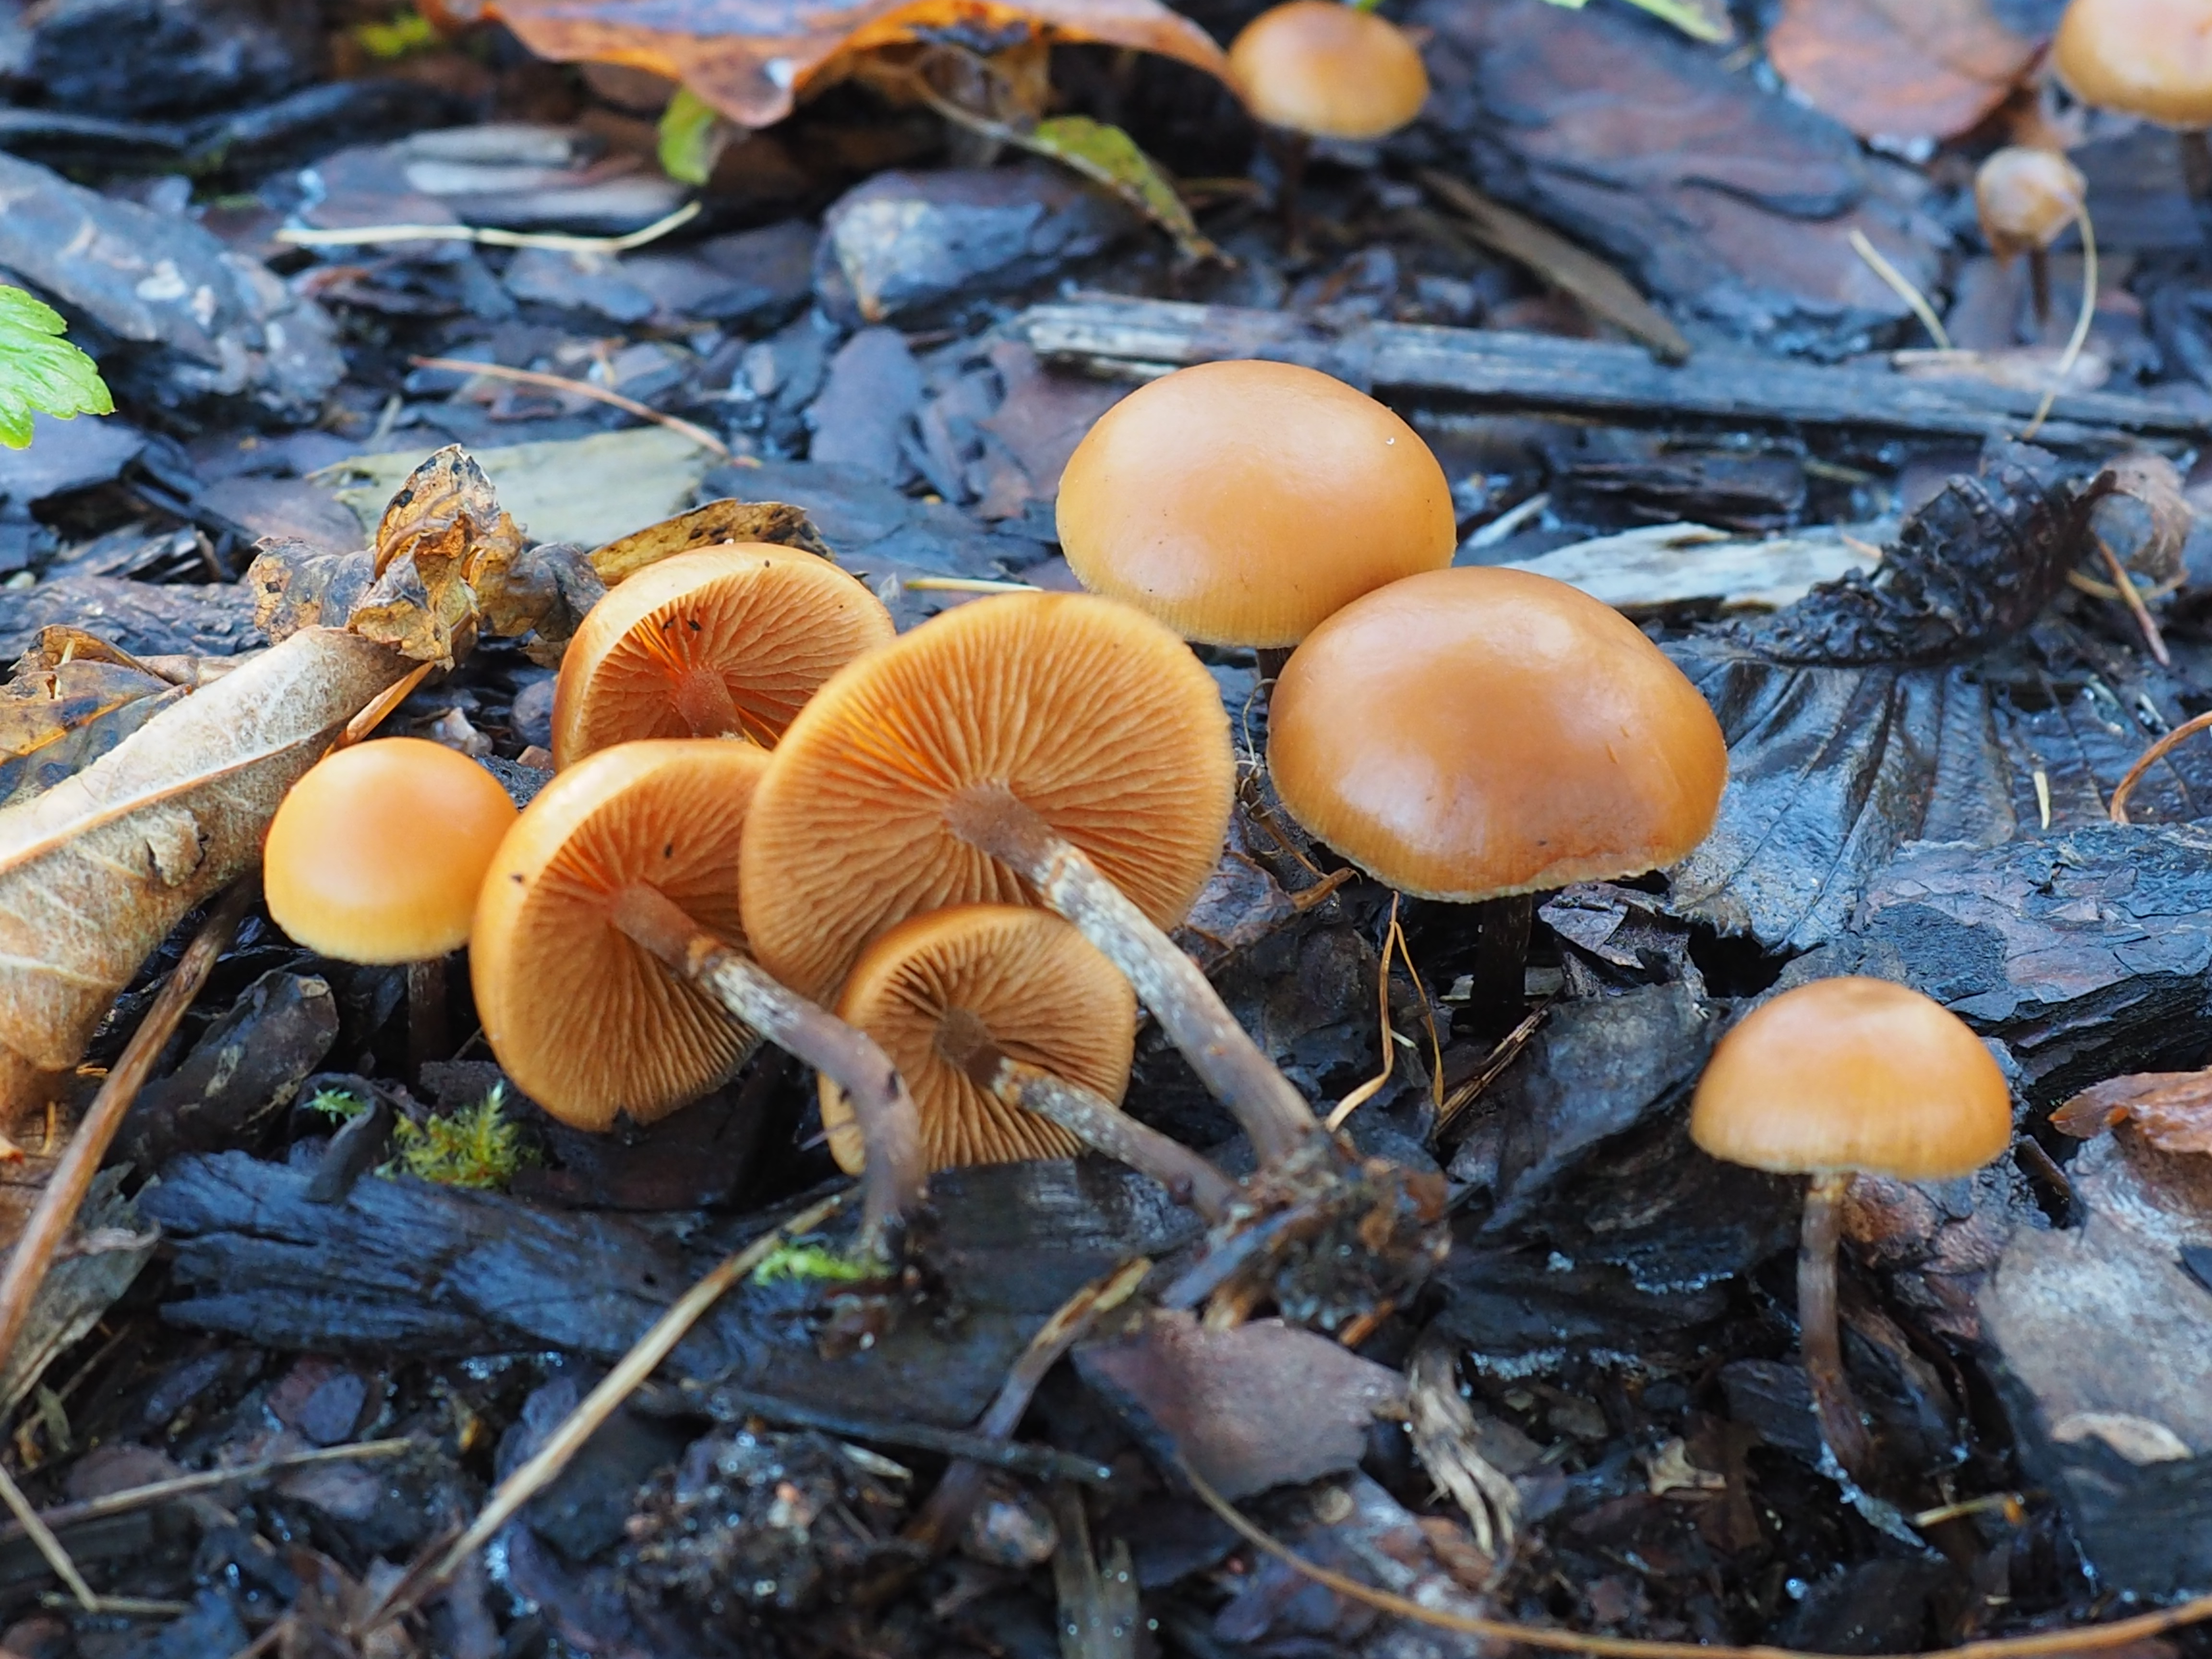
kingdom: Fungi
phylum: Basidiomycota
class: Agaricomycetes
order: Agaricales
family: Hymenogastraceae
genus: Galerina
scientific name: Galerina marginata
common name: Funeral bell
